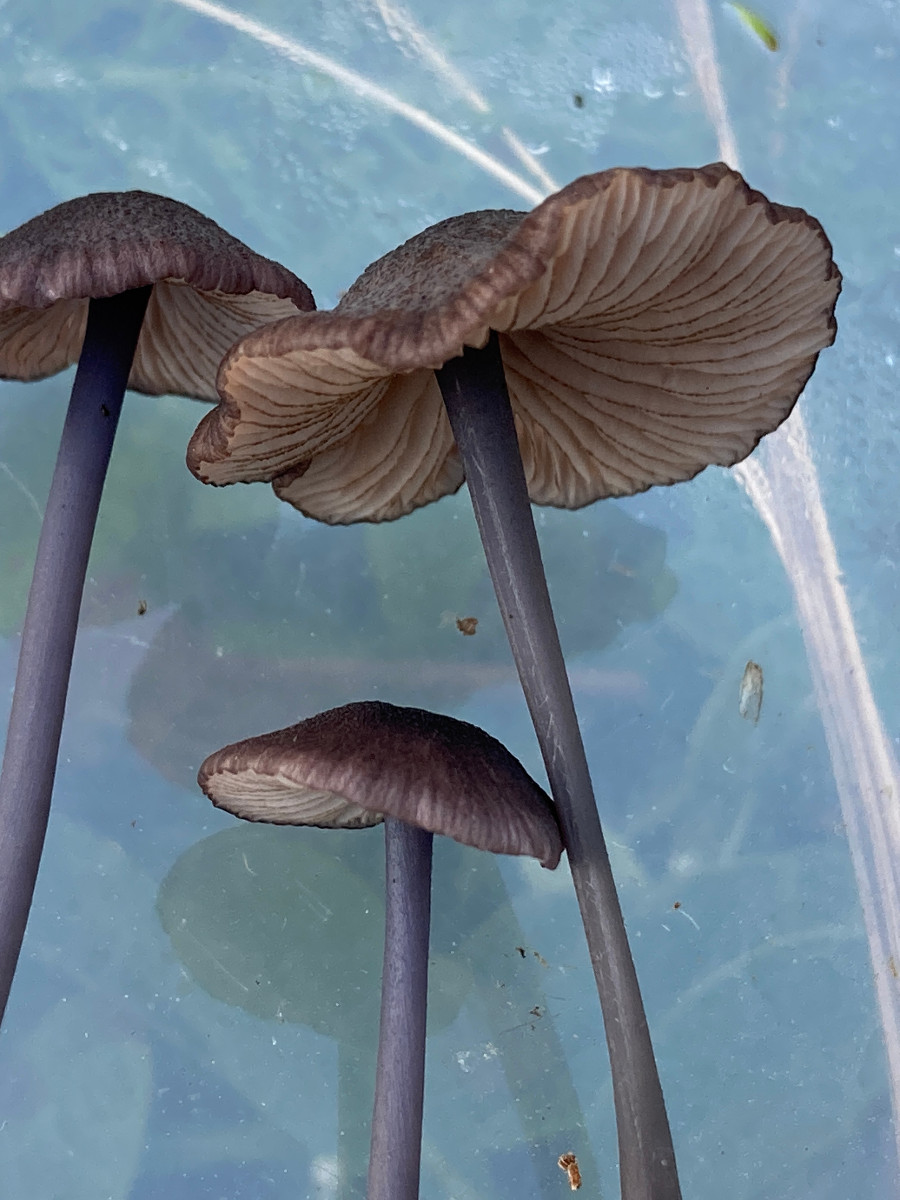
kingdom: Fungi
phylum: Basidiomycota
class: Agaricomycetes
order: Agaricales
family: Entolomataceae
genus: Entoloma
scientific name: Entoloma
